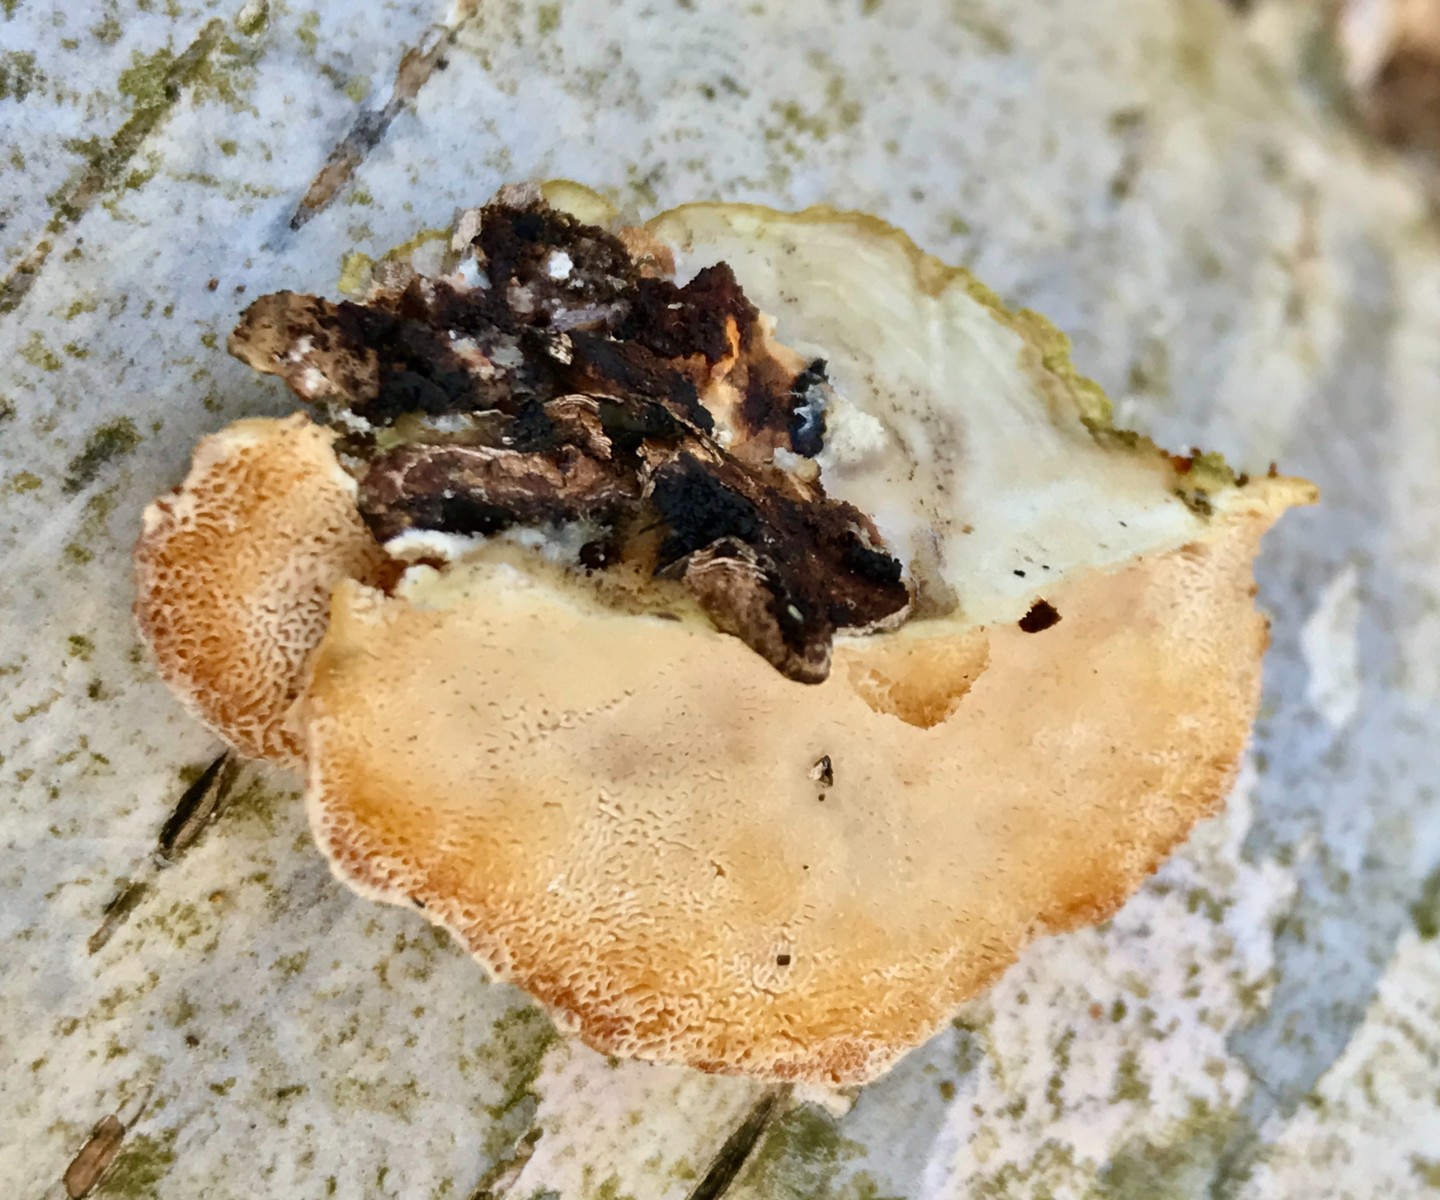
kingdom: Fungi
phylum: Basidiomycota
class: Agaricomycetes
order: Polyporales
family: Polyporaceae
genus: Trametes
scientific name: Trametes ochracea
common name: bæltet læderporesvamp
